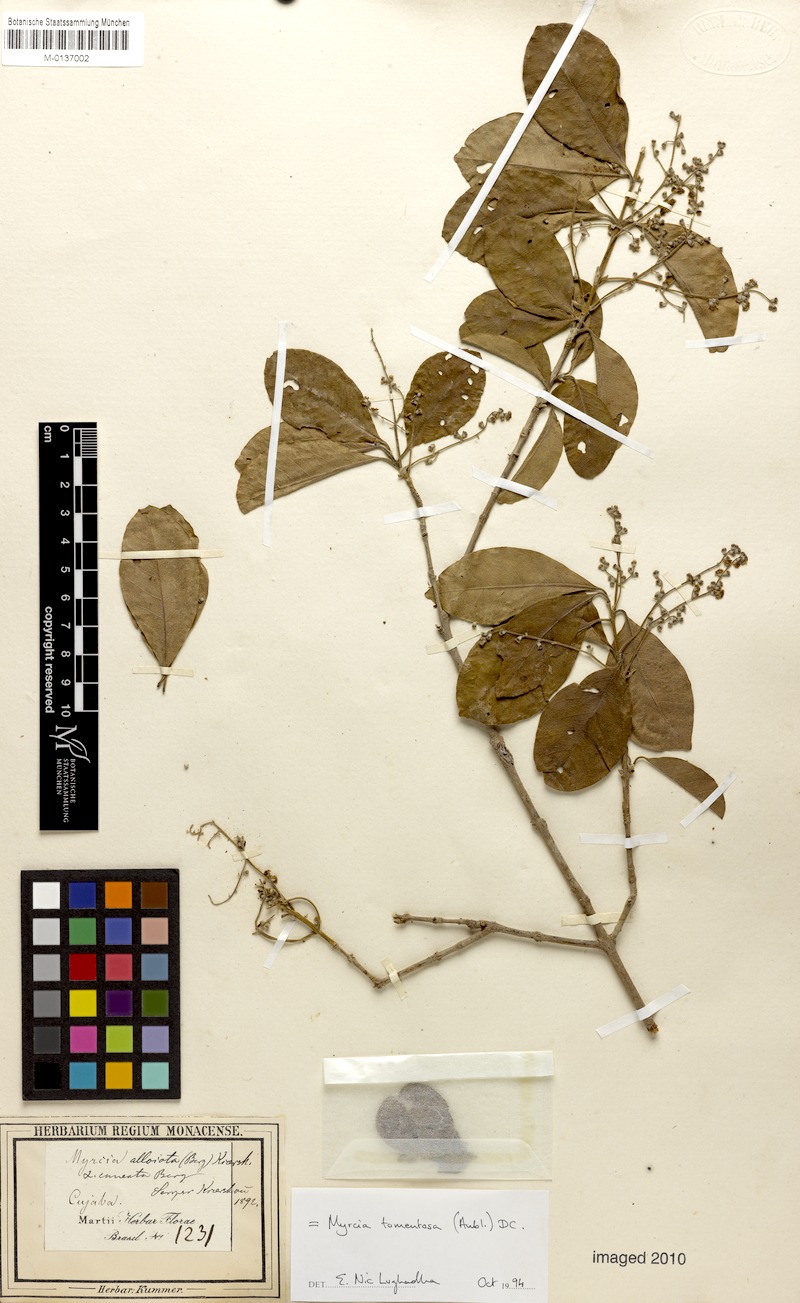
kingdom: Plantae
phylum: Tracheophyta
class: Magnoliopsida
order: Myrtales
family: Myrtaceae
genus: Myrcia
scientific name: Myrcia tomentosa
